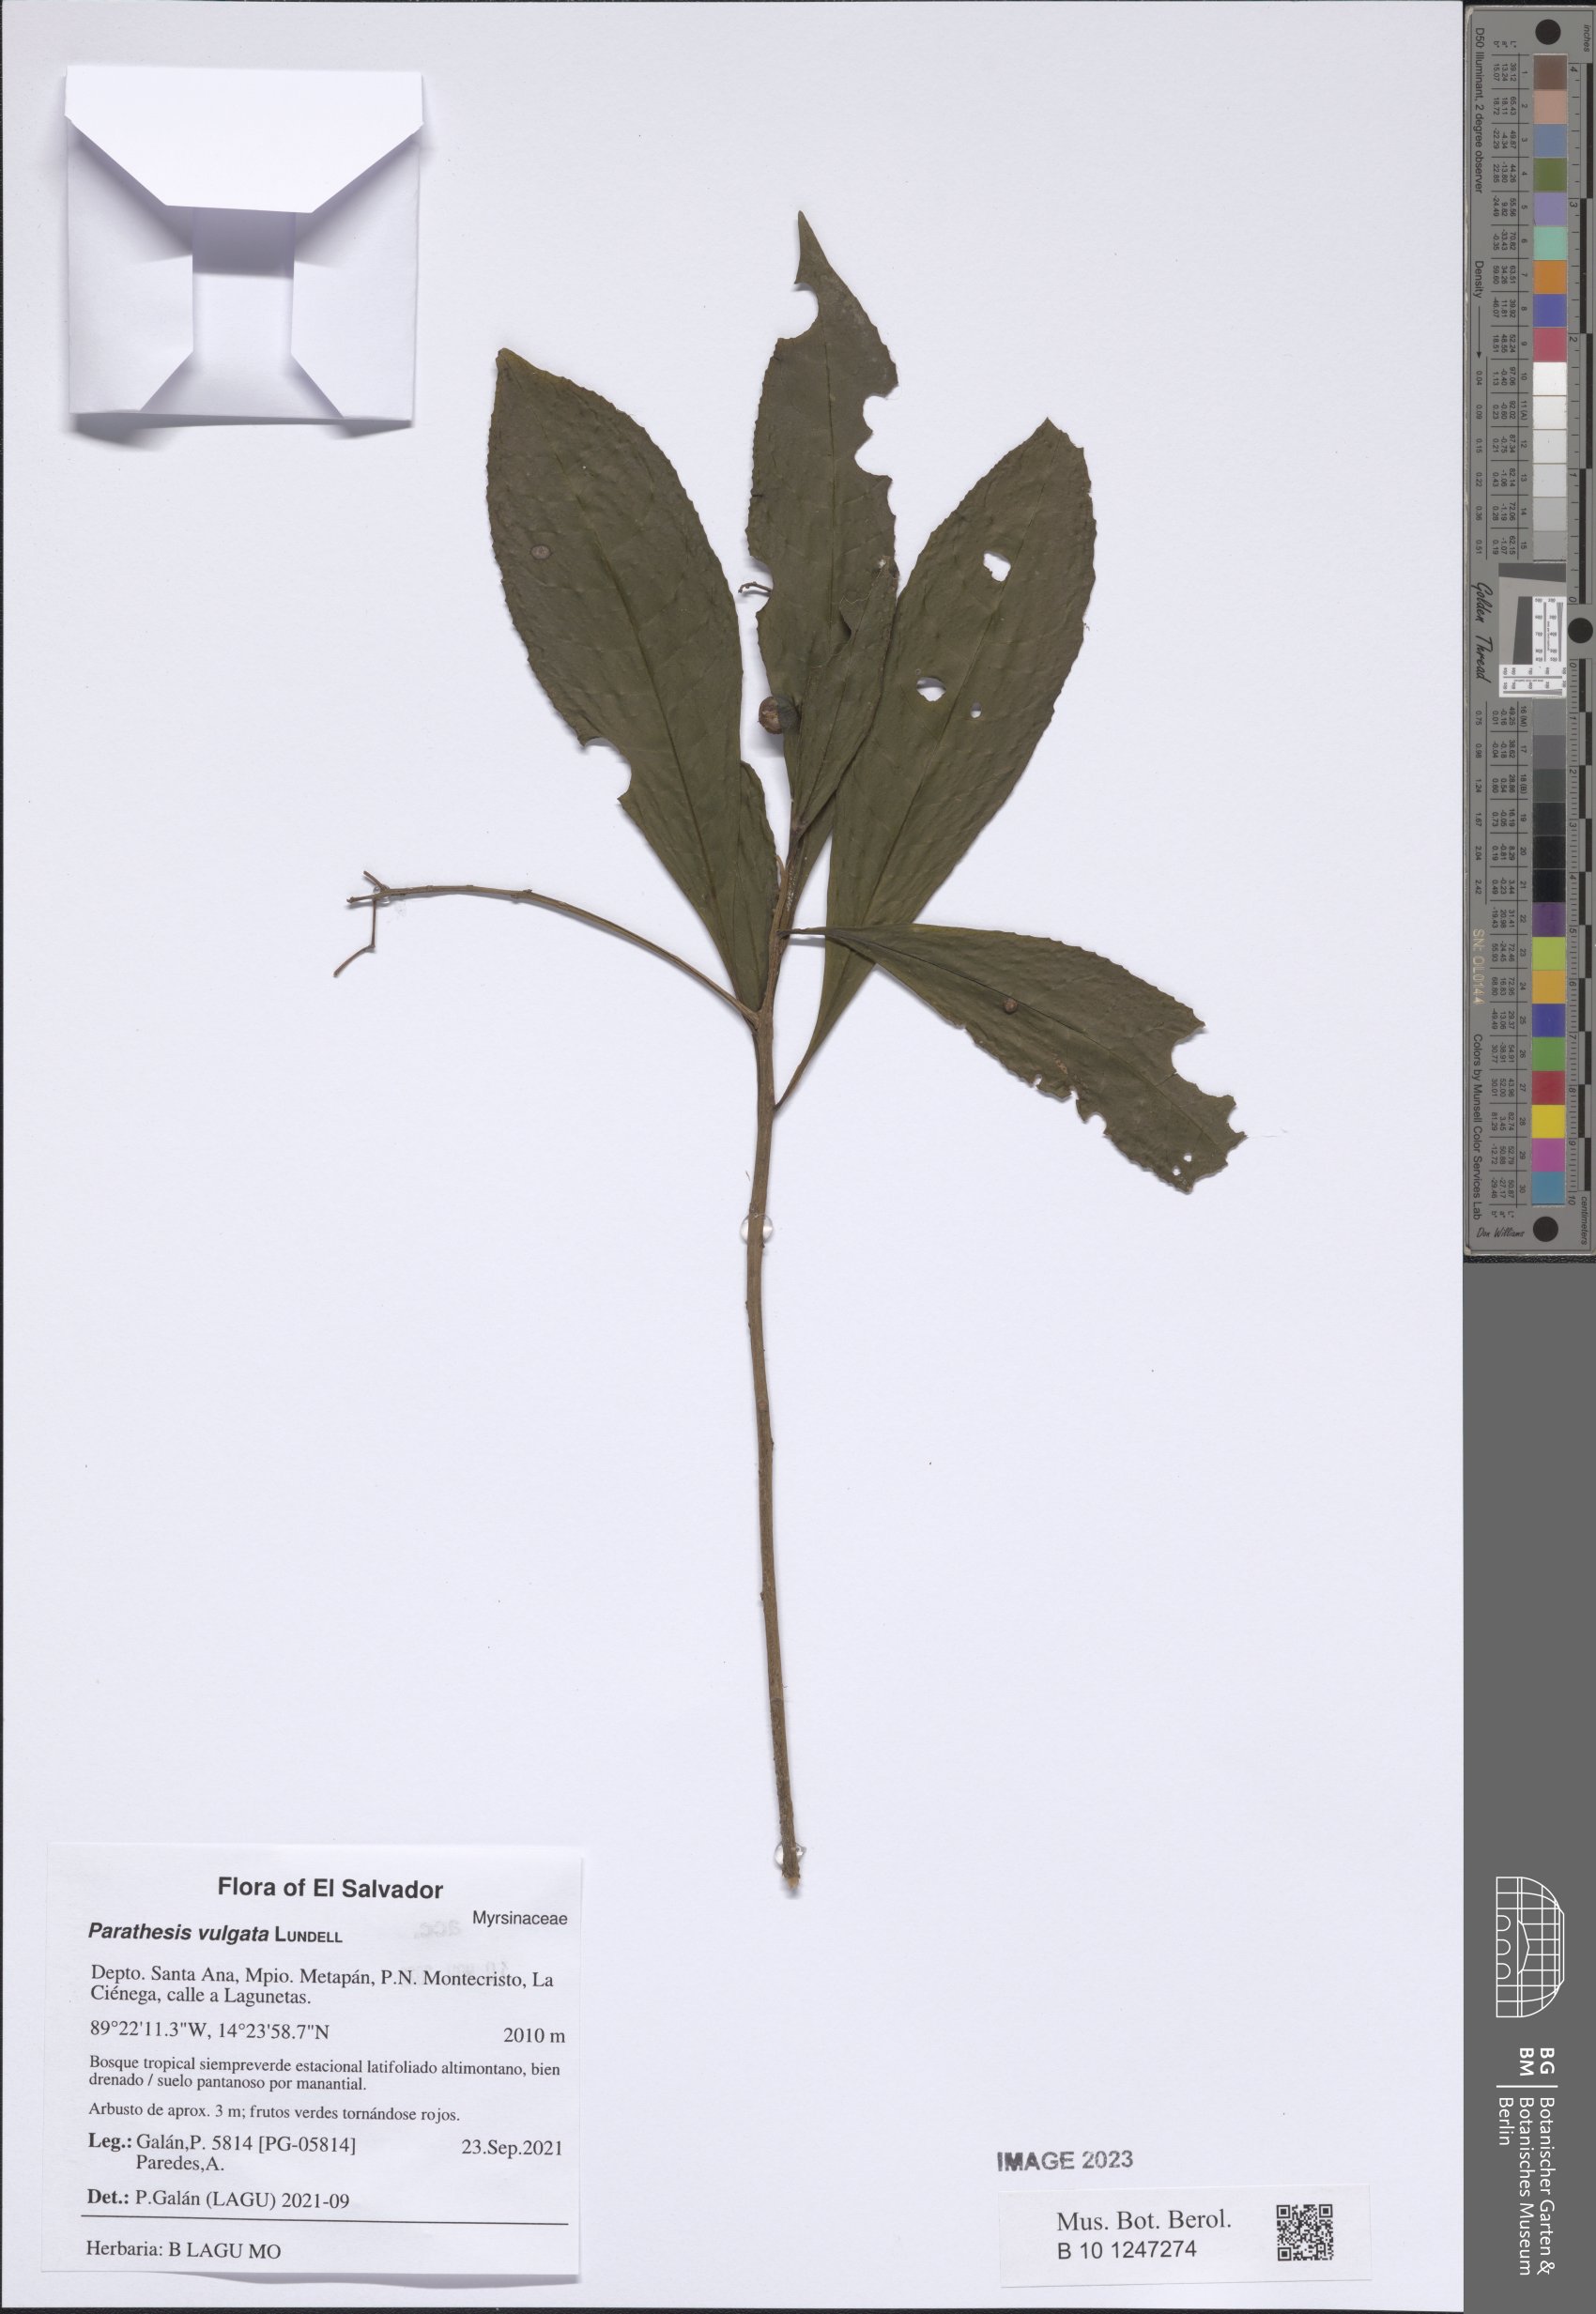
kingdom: Plantae
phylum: Tracheophyta
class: Magnoliopsida
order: Ericales
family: Primulaceae
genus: Parathesis
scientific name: Parathesis vulgata
